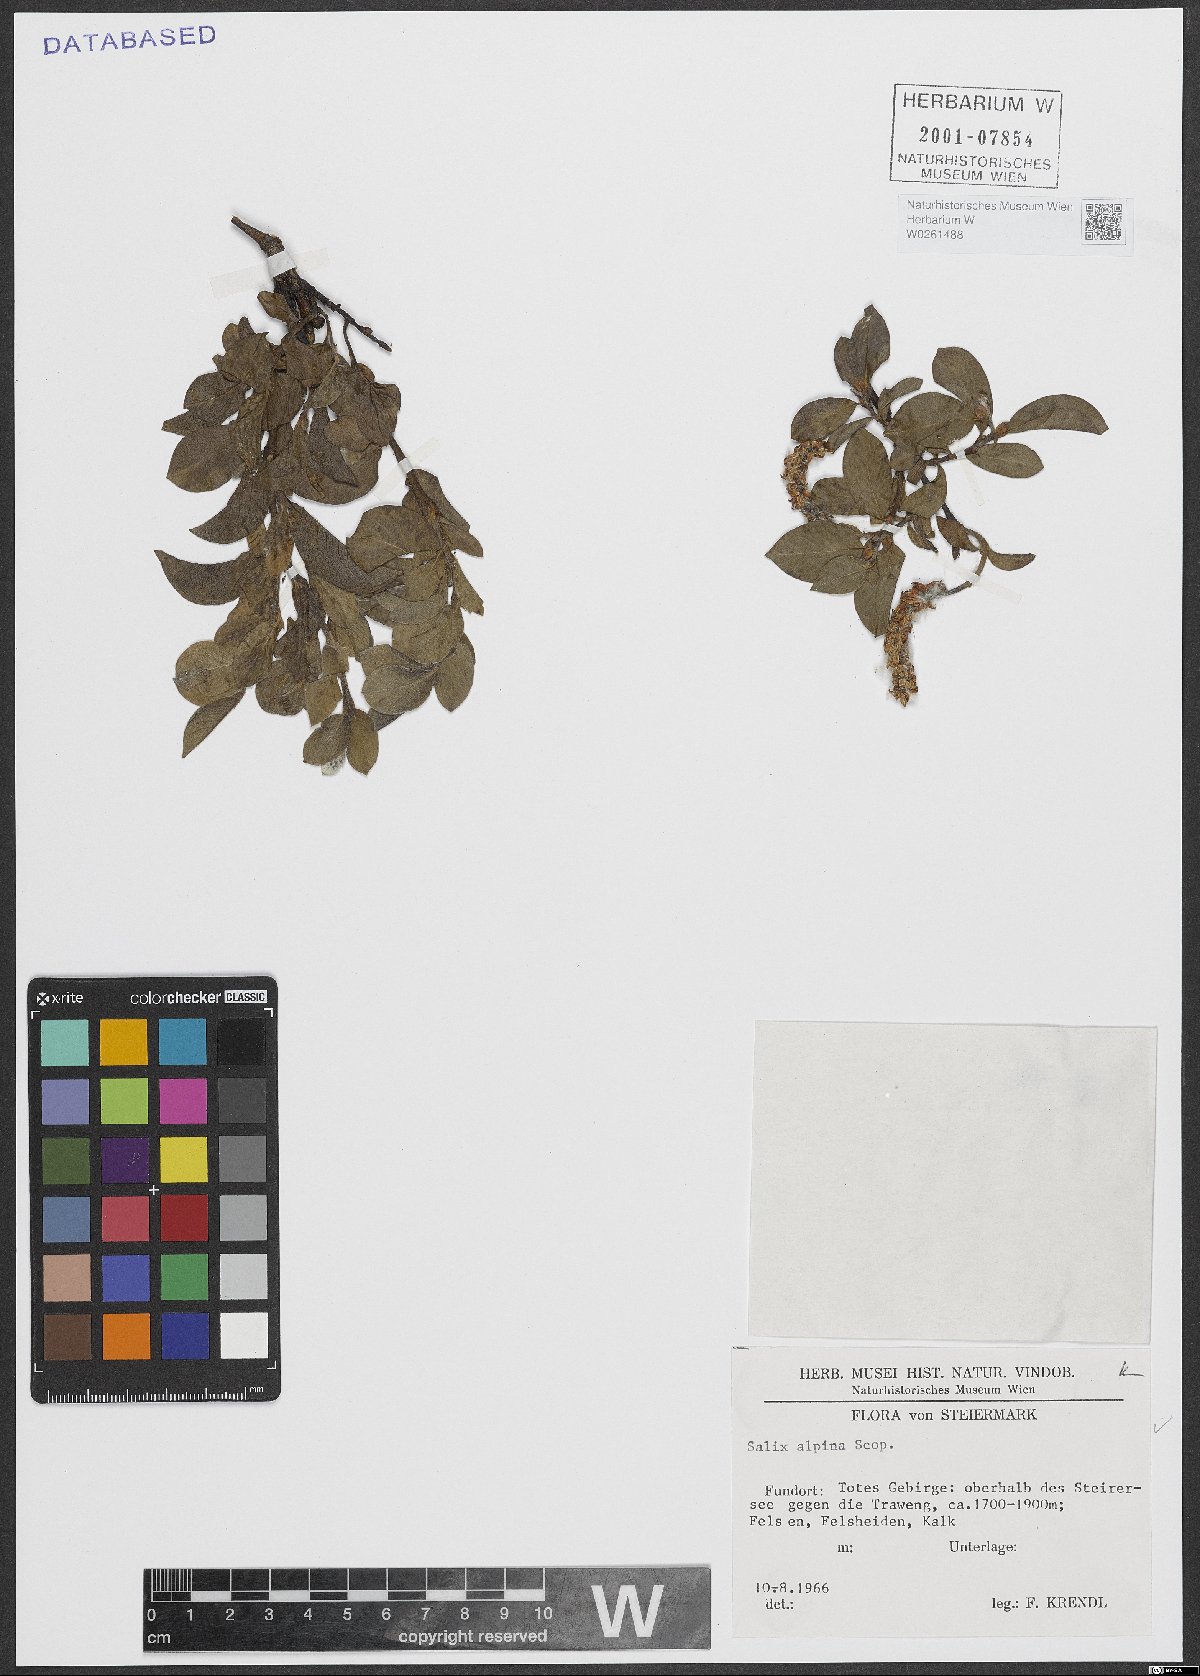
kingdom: Plantae
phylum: Tracheophyta
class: Magnoliopsida
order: Malpighiales
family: Salicaceae
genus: Salix
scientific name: Salix alpina
